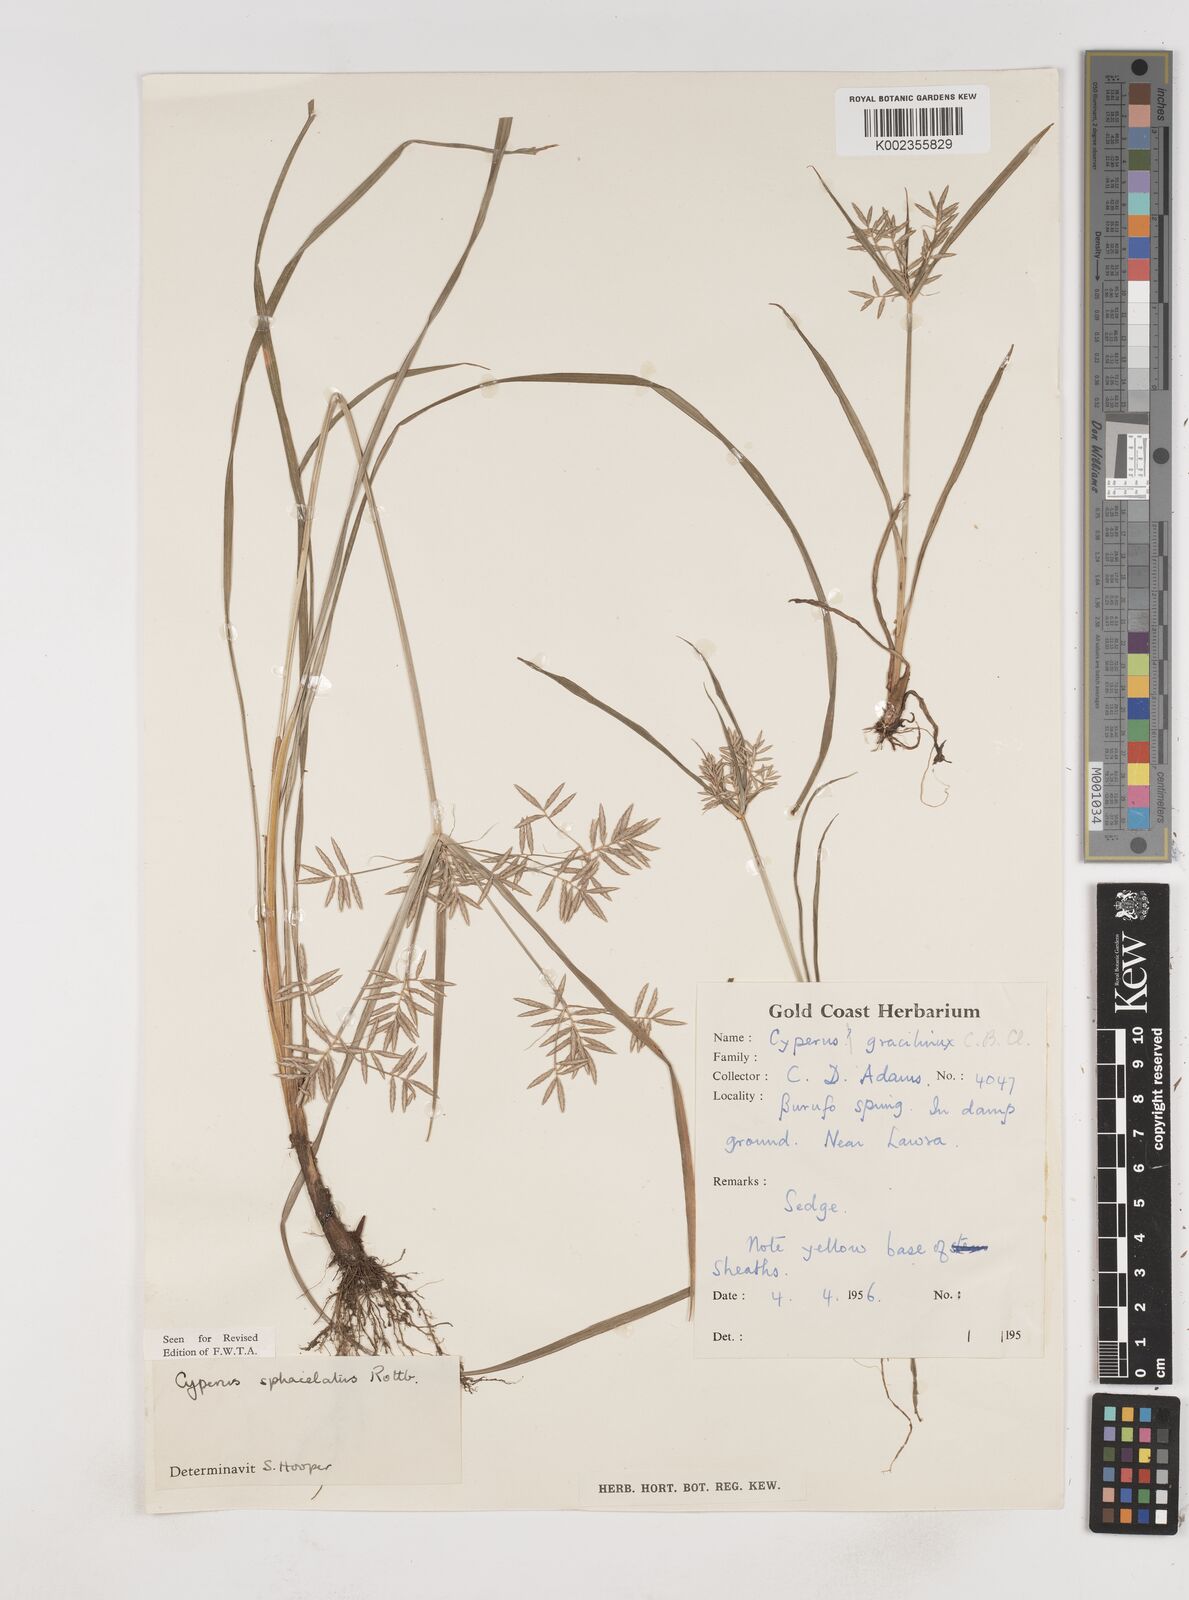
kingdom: Plantae
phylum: Tracheophyta
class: Liliopsida
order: Poales
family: Cyperaceae
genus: Cyperus
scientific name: Cyperus sphacelatus
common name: Roadside flatsedge
